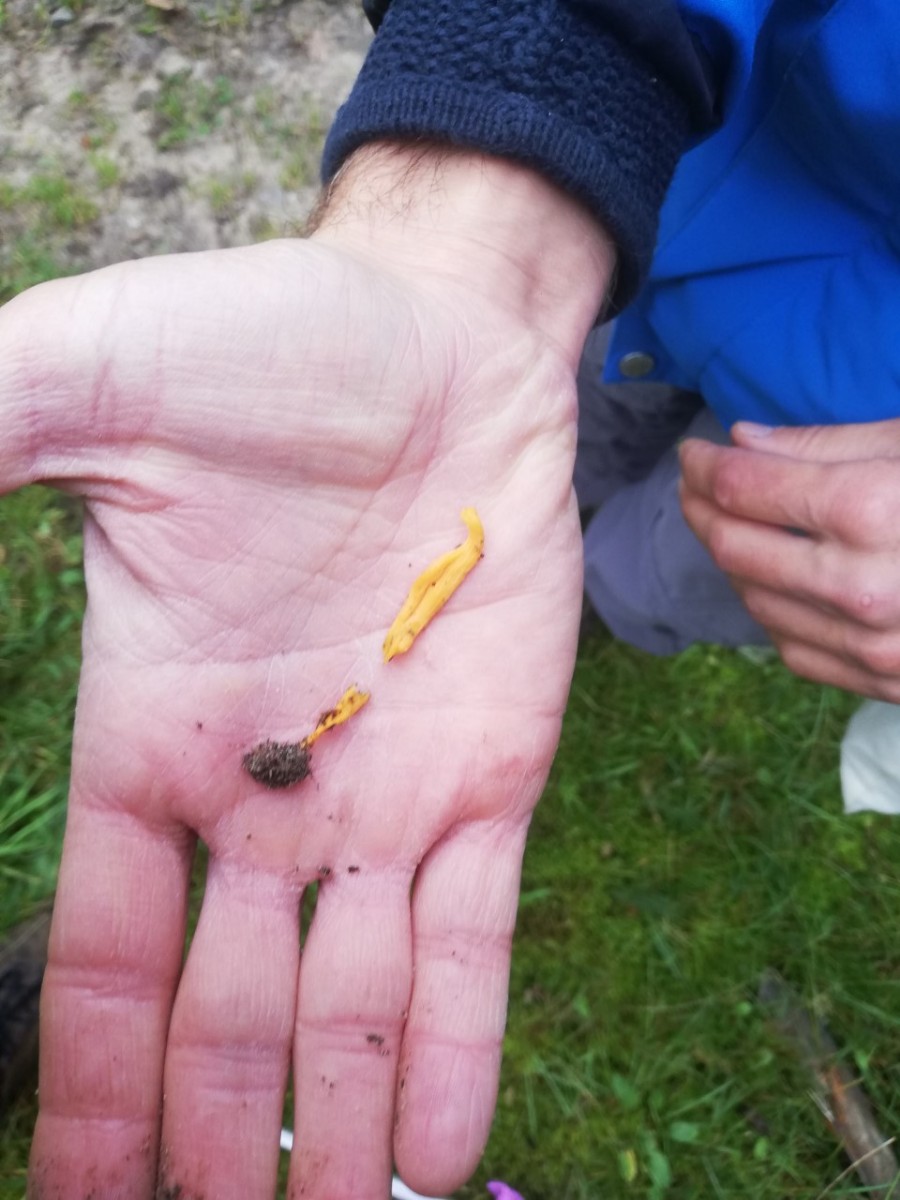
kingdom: Fungi
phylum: Basidiomycota
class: Agaricomycetes
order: Agaricales
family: Clavariaceae
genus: Clavulinopsis
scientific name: Clavulinopsis
